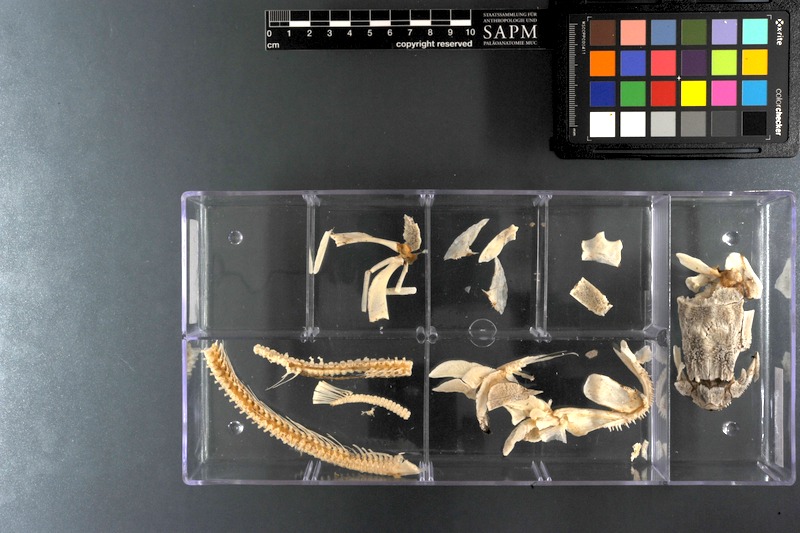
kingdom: Animalia
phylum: Chordata
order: Amiiformes
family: Amiidae
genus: Amia
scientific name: Amia calva
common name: Bowfin
